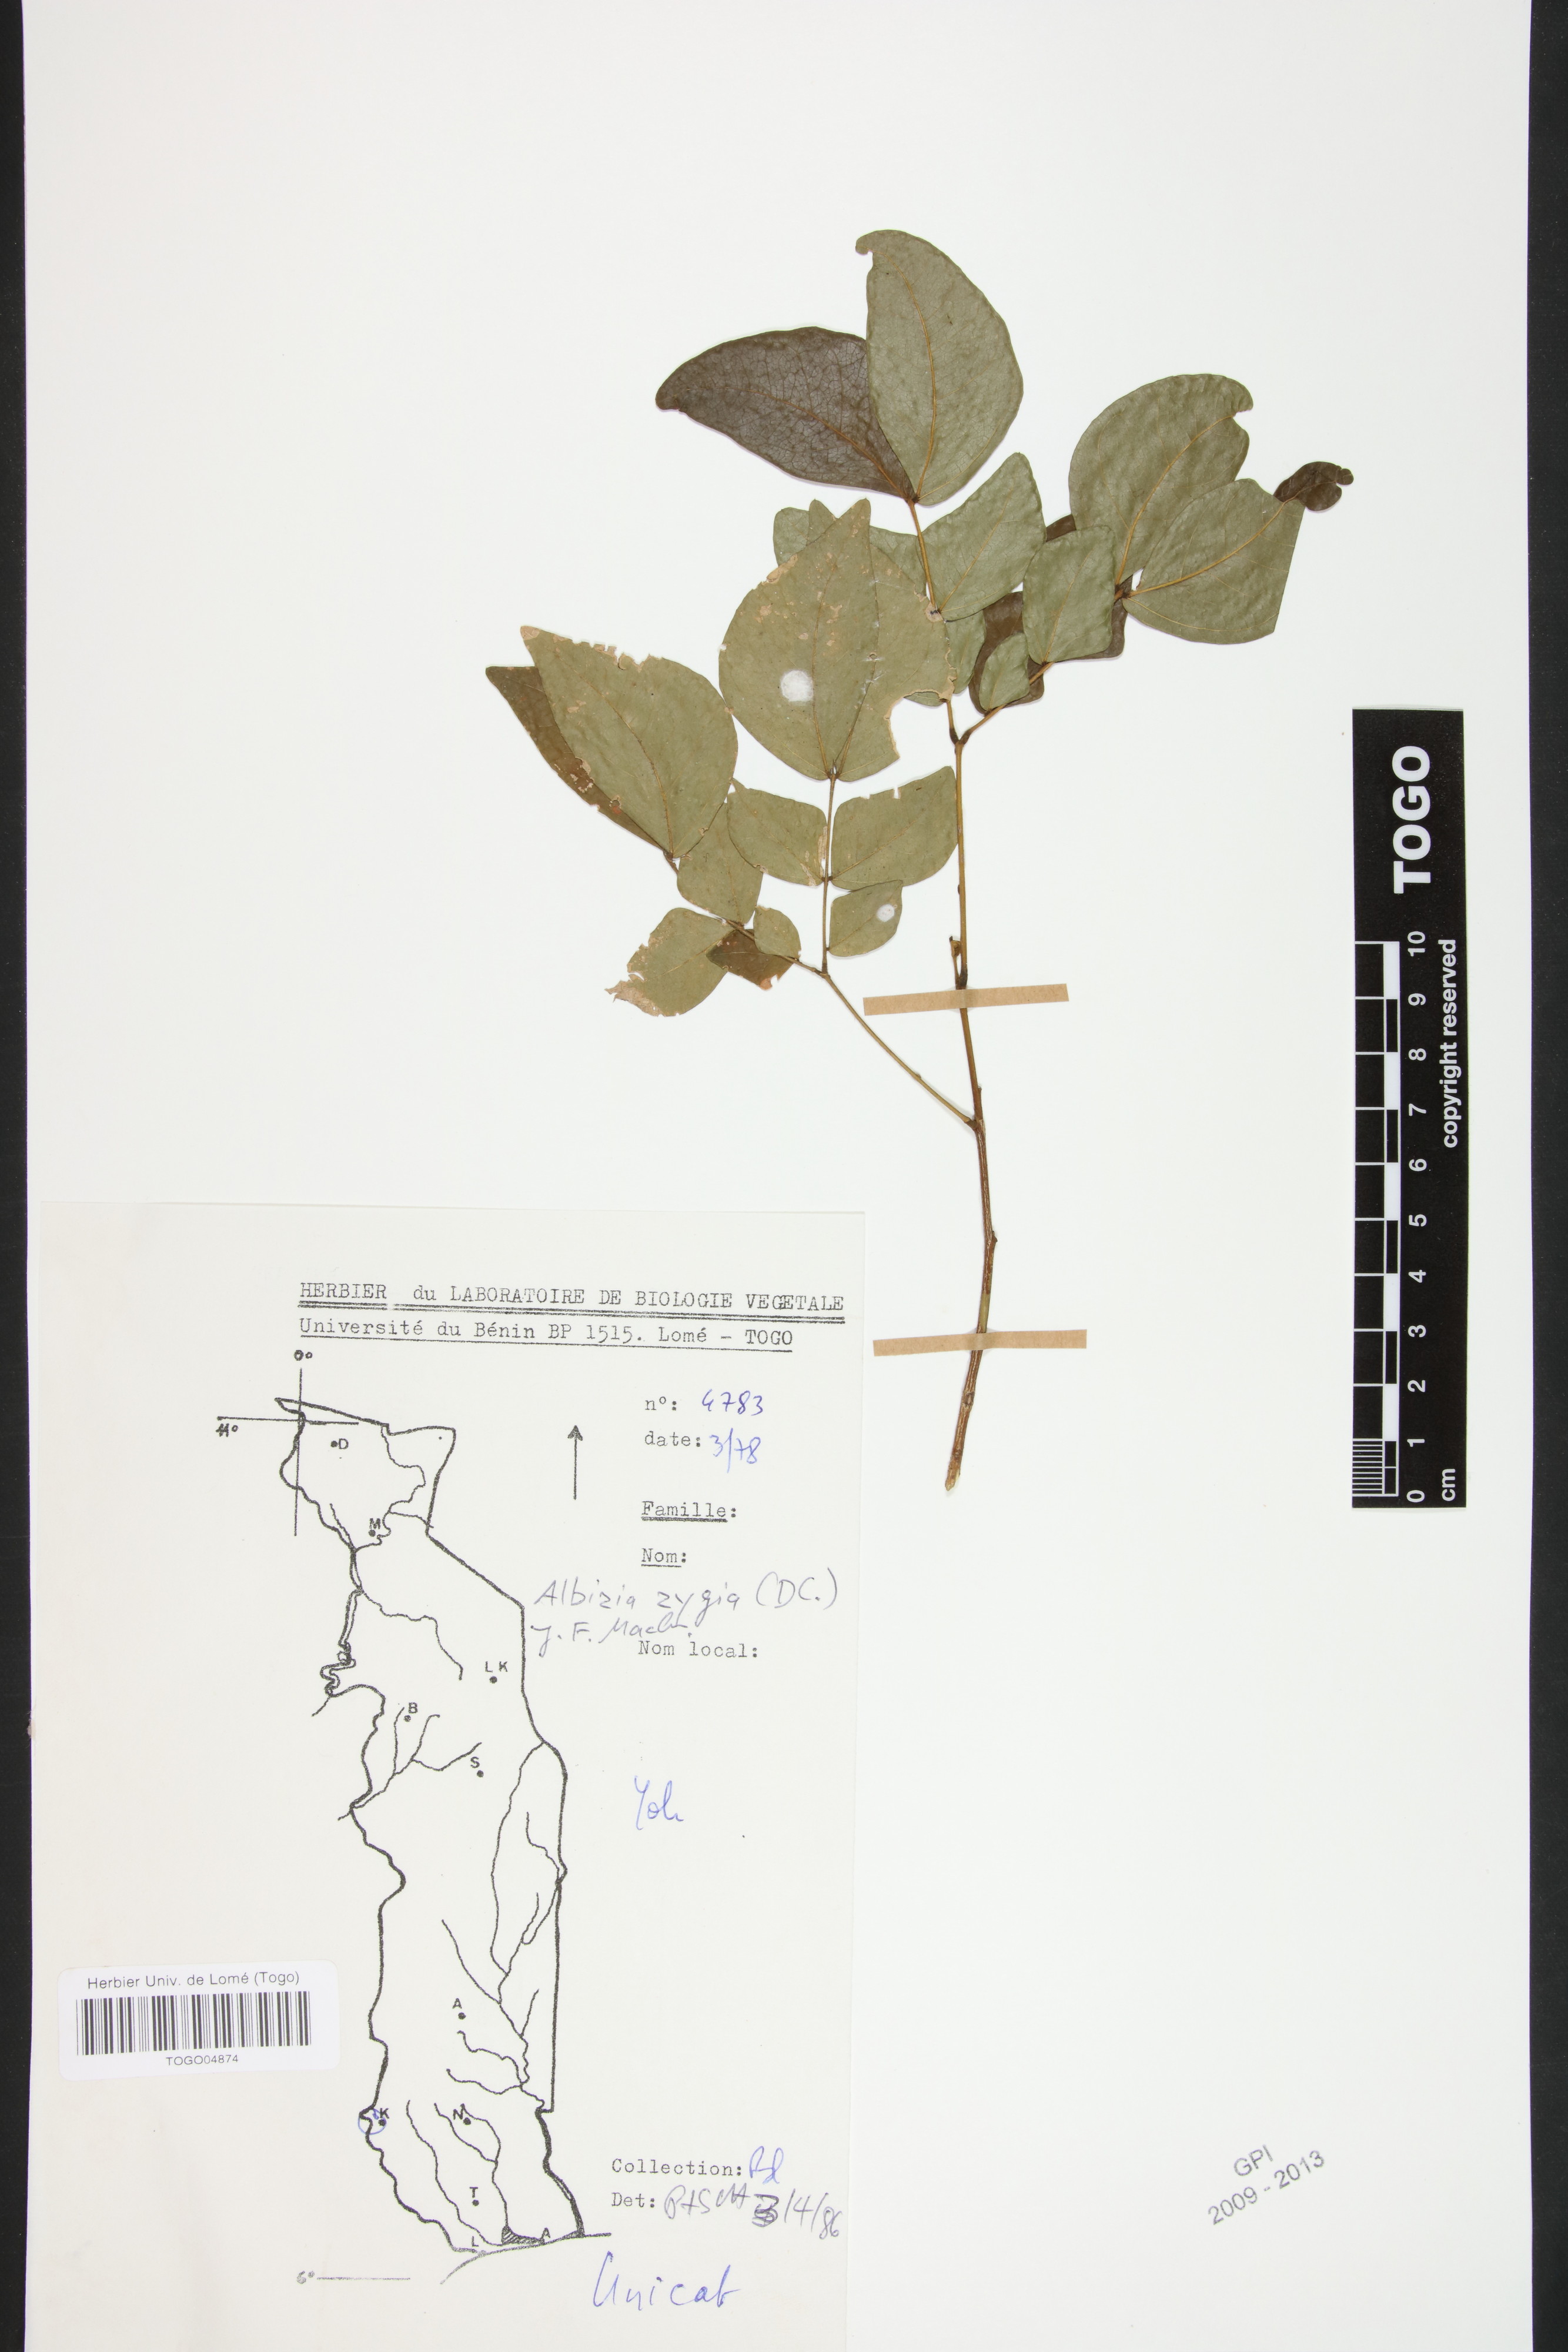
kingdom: Plantae
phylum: Tracheophyta
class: Magnoliopsida
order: Fabales
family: Fabaceae
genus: Albizia
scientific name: Albizia zygia
